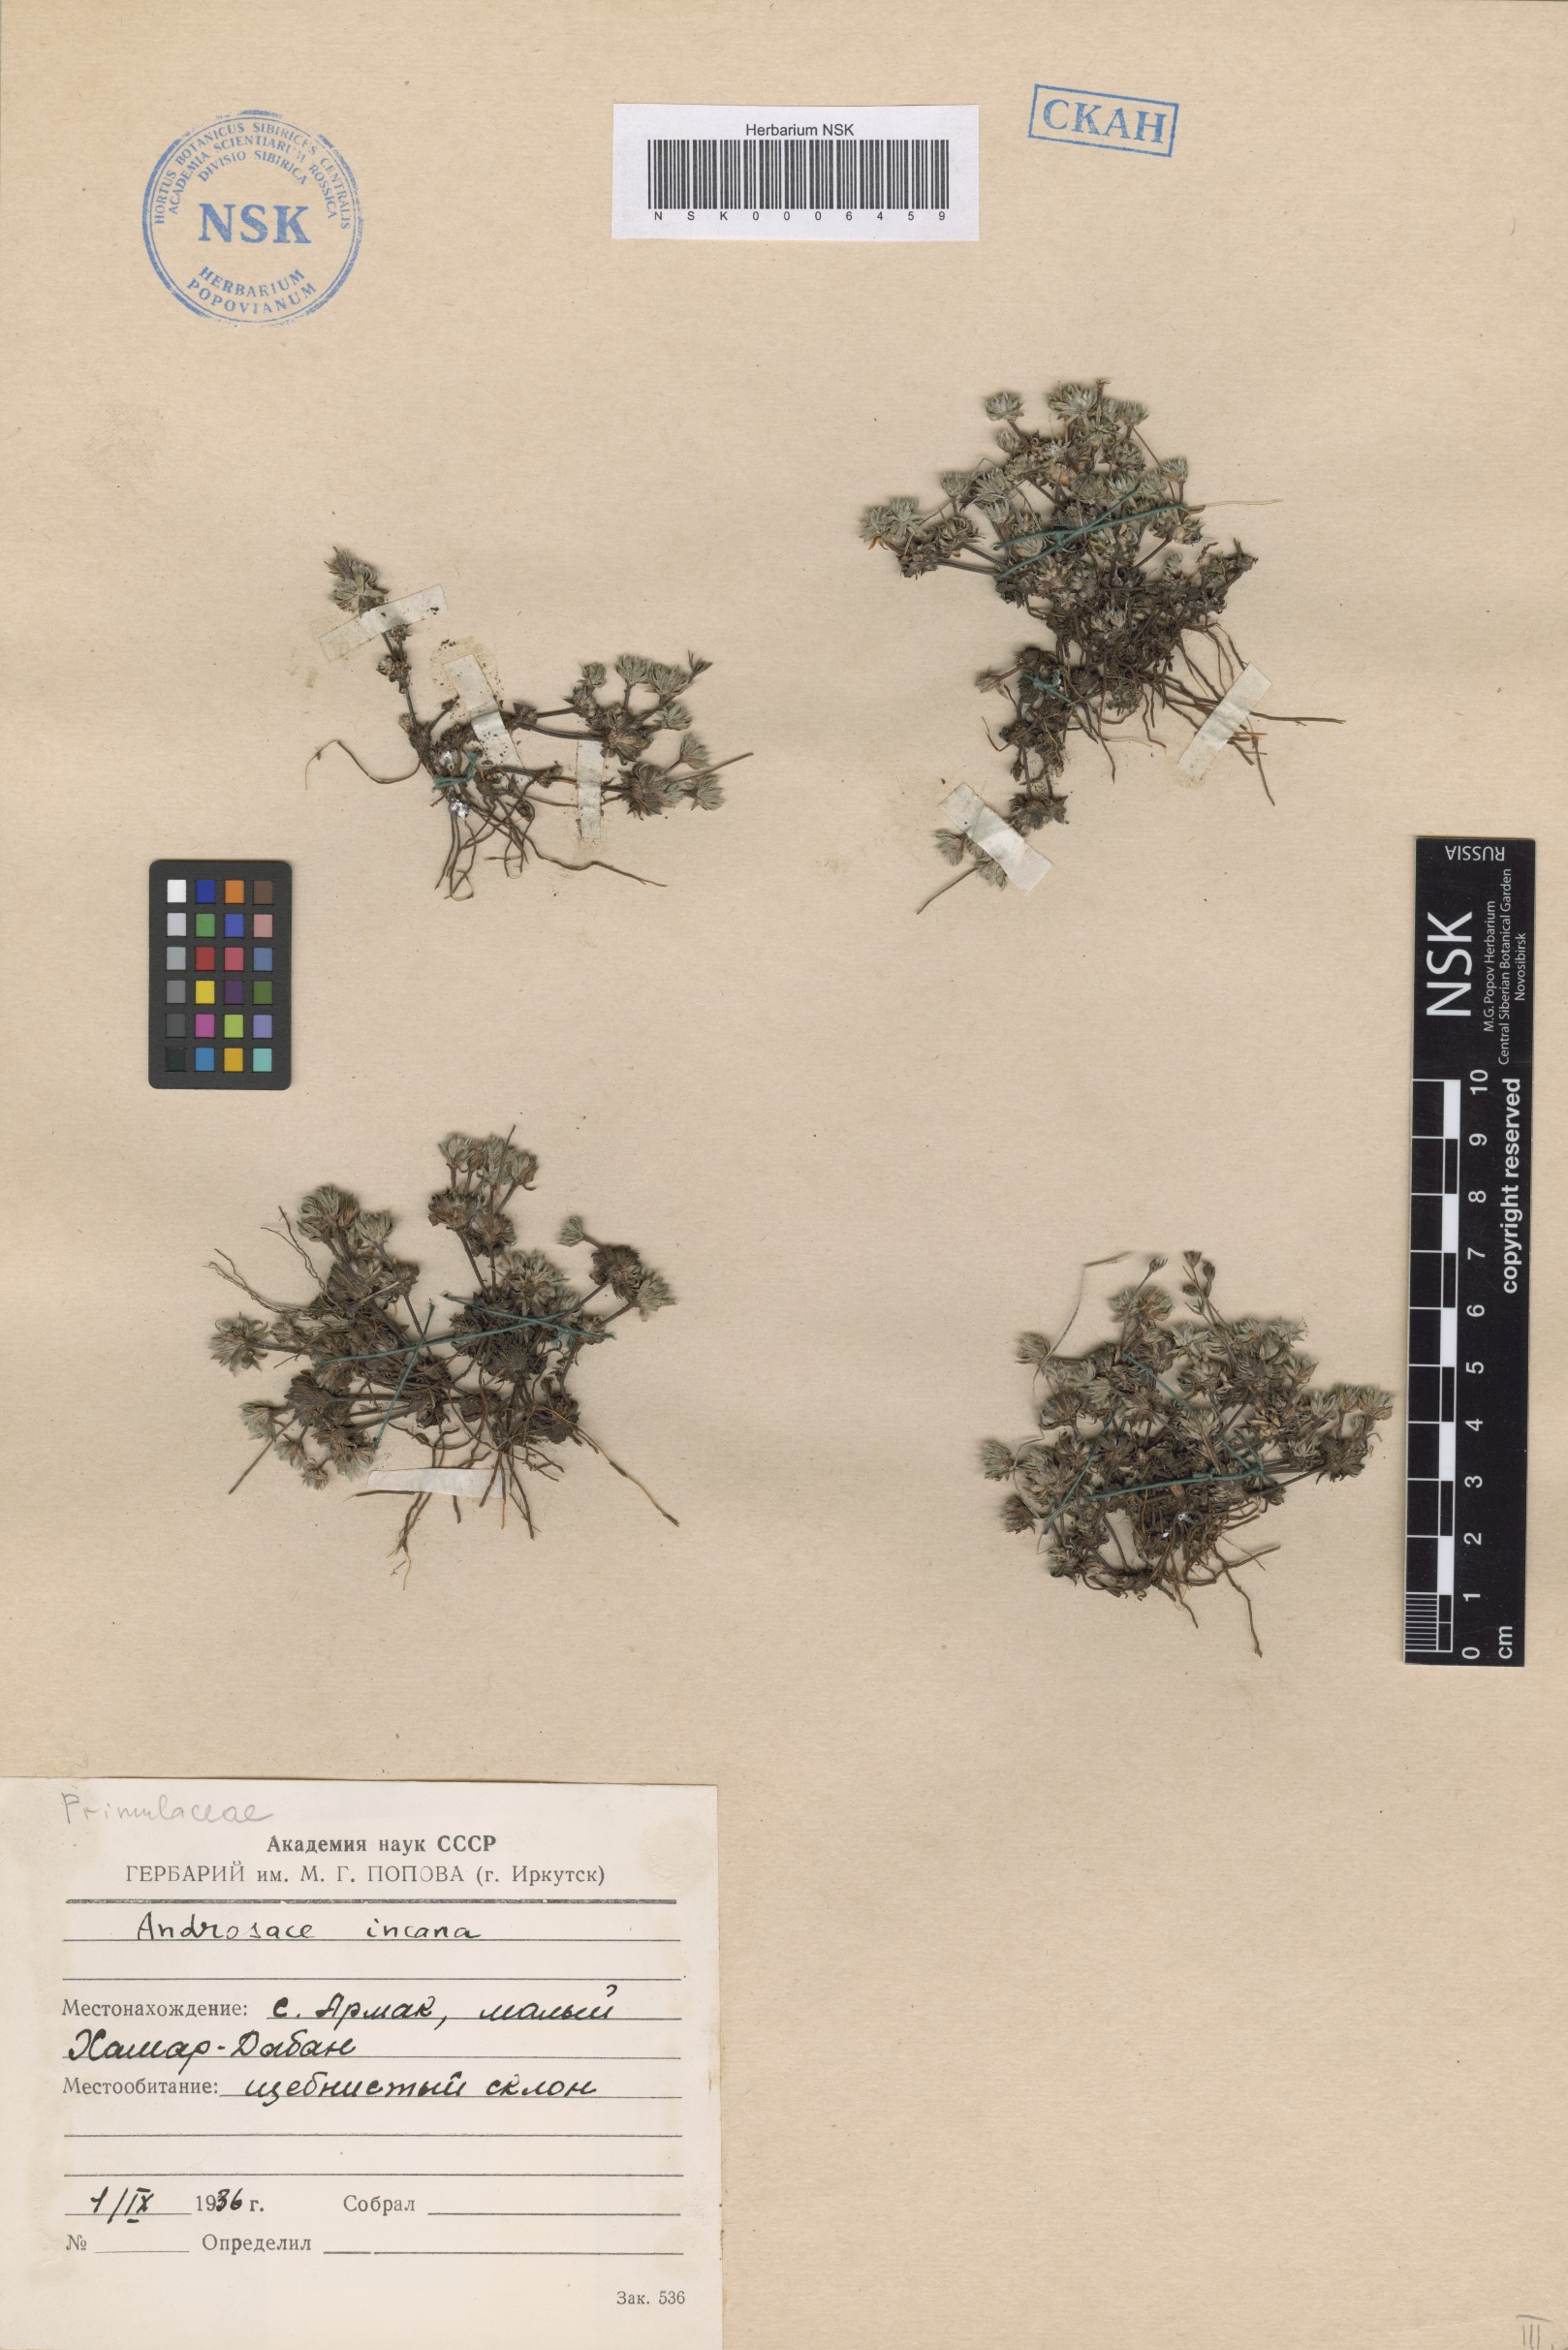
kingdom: Plantae
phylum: Tracheophyta
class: Magnoliopsida
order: Ericales
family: Primulaceae
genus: Androsace
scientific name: Androsace incana
